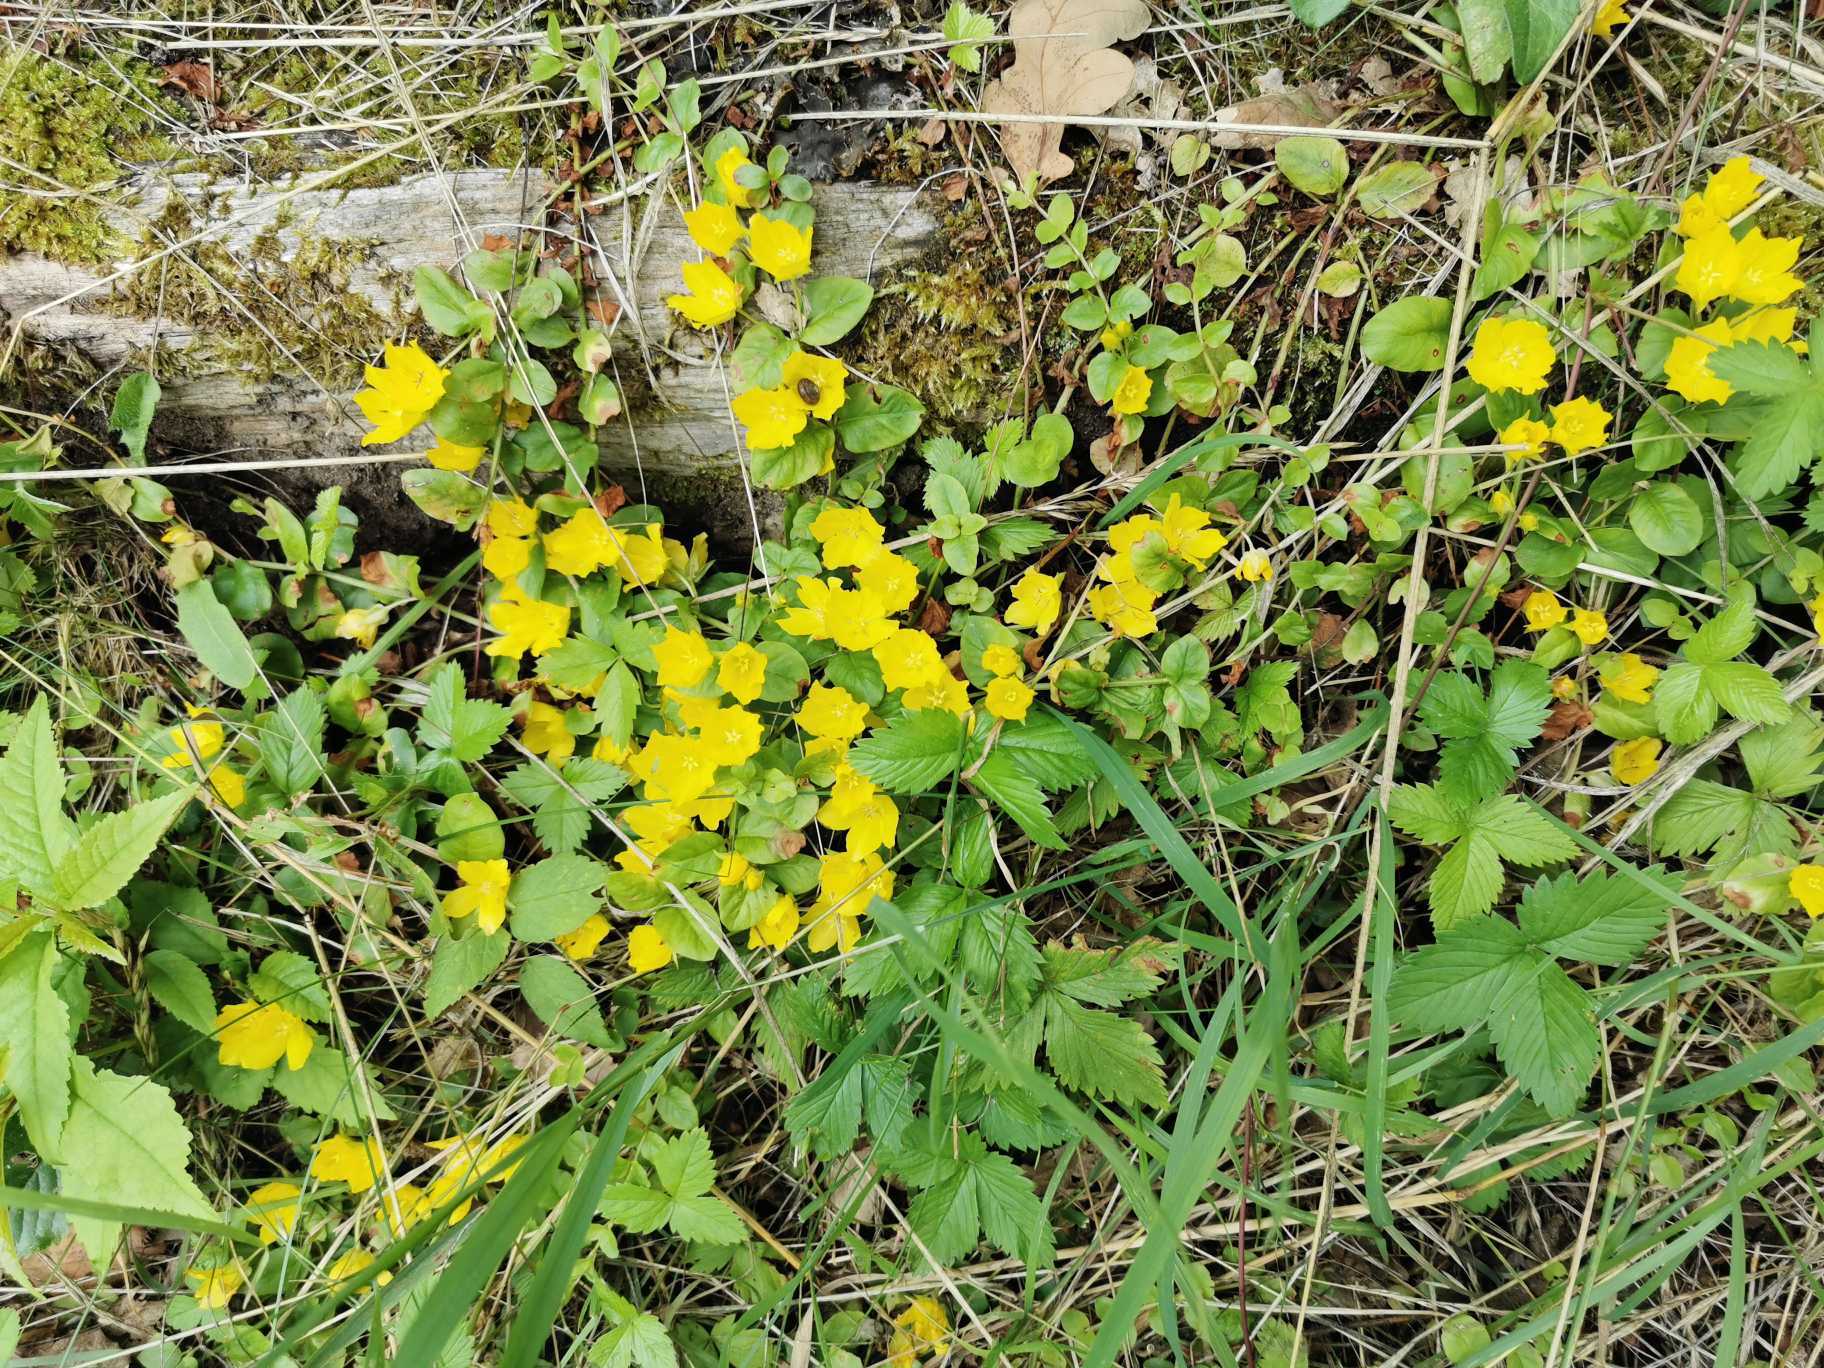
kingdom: Plantae
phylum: Tracheophyta
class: Magnoliopsida
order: Ericales
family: Primulaceae
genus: Lysimachia
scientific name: Lysimachia nummularia
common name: Pengebladet fredløs
